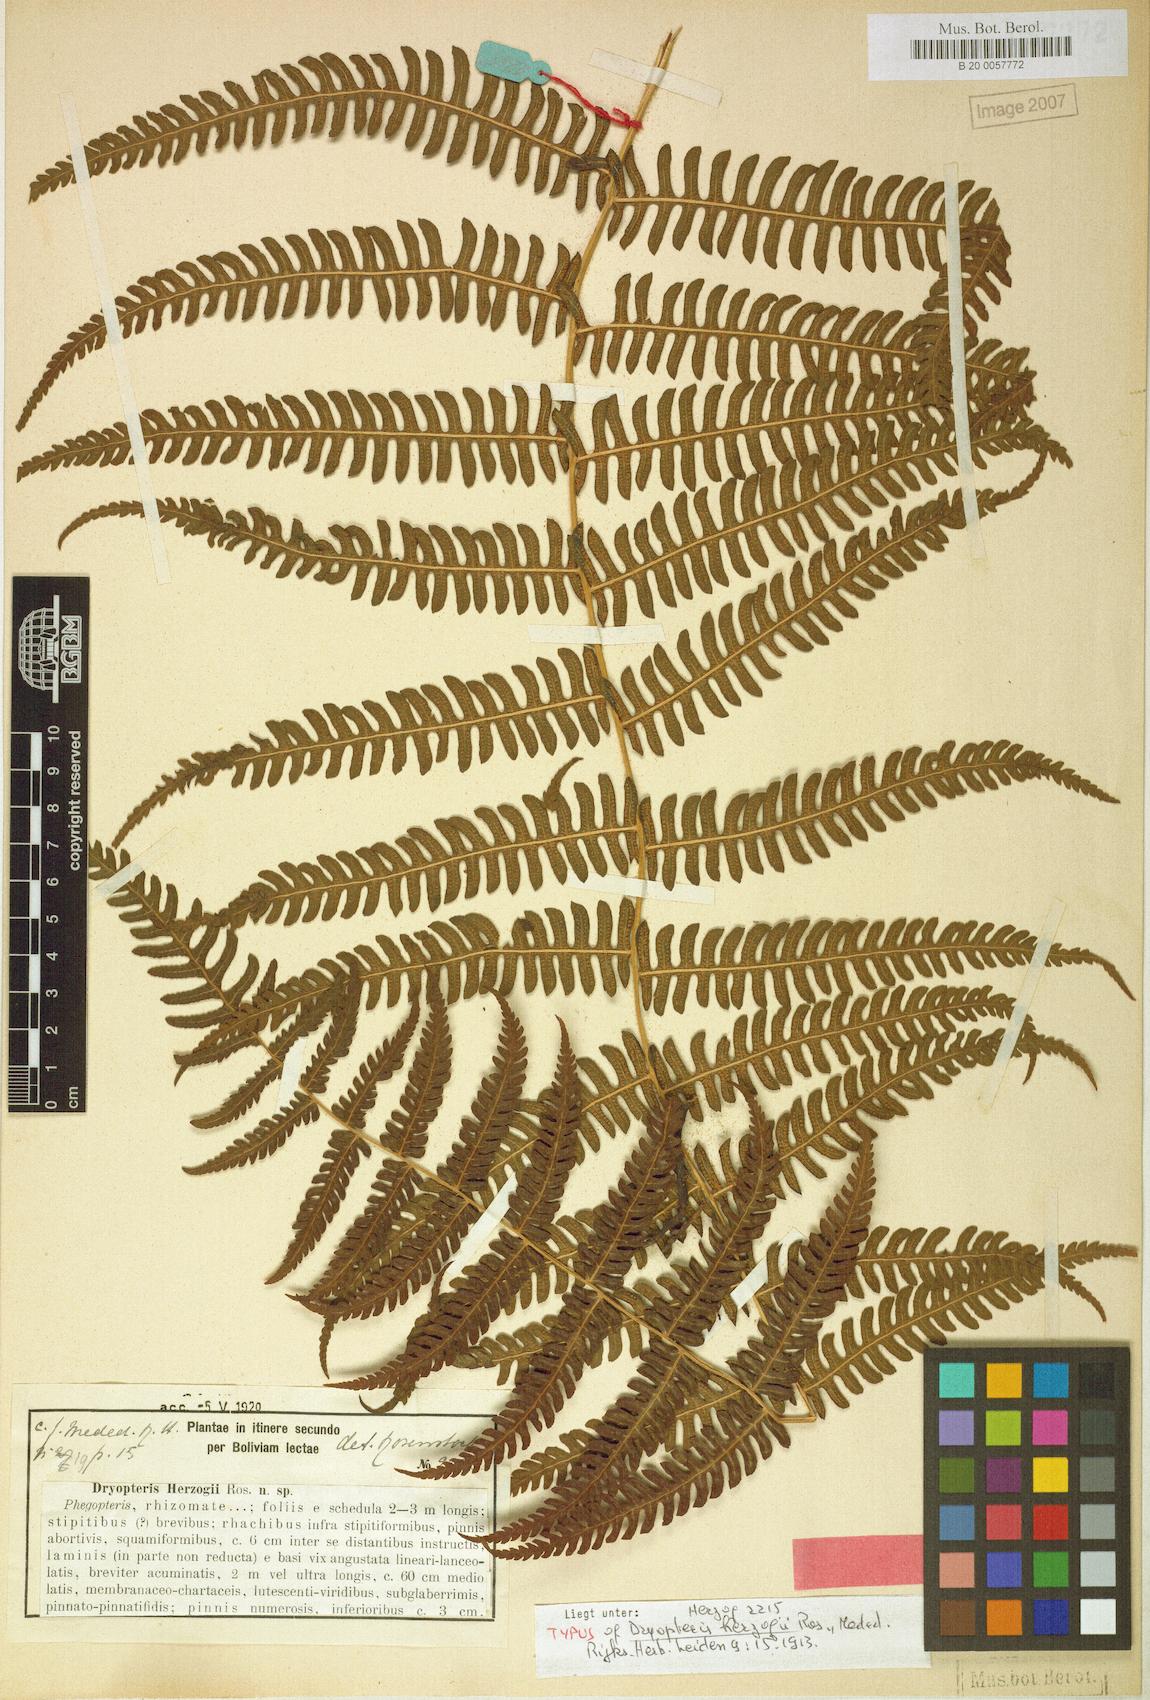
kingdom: Plantae
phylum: Tracheophyta
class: Polypodiopsida
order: Polypodiales
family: Thelypteridaceae
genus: Amauropelta
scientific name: Amauropelta euchlora
